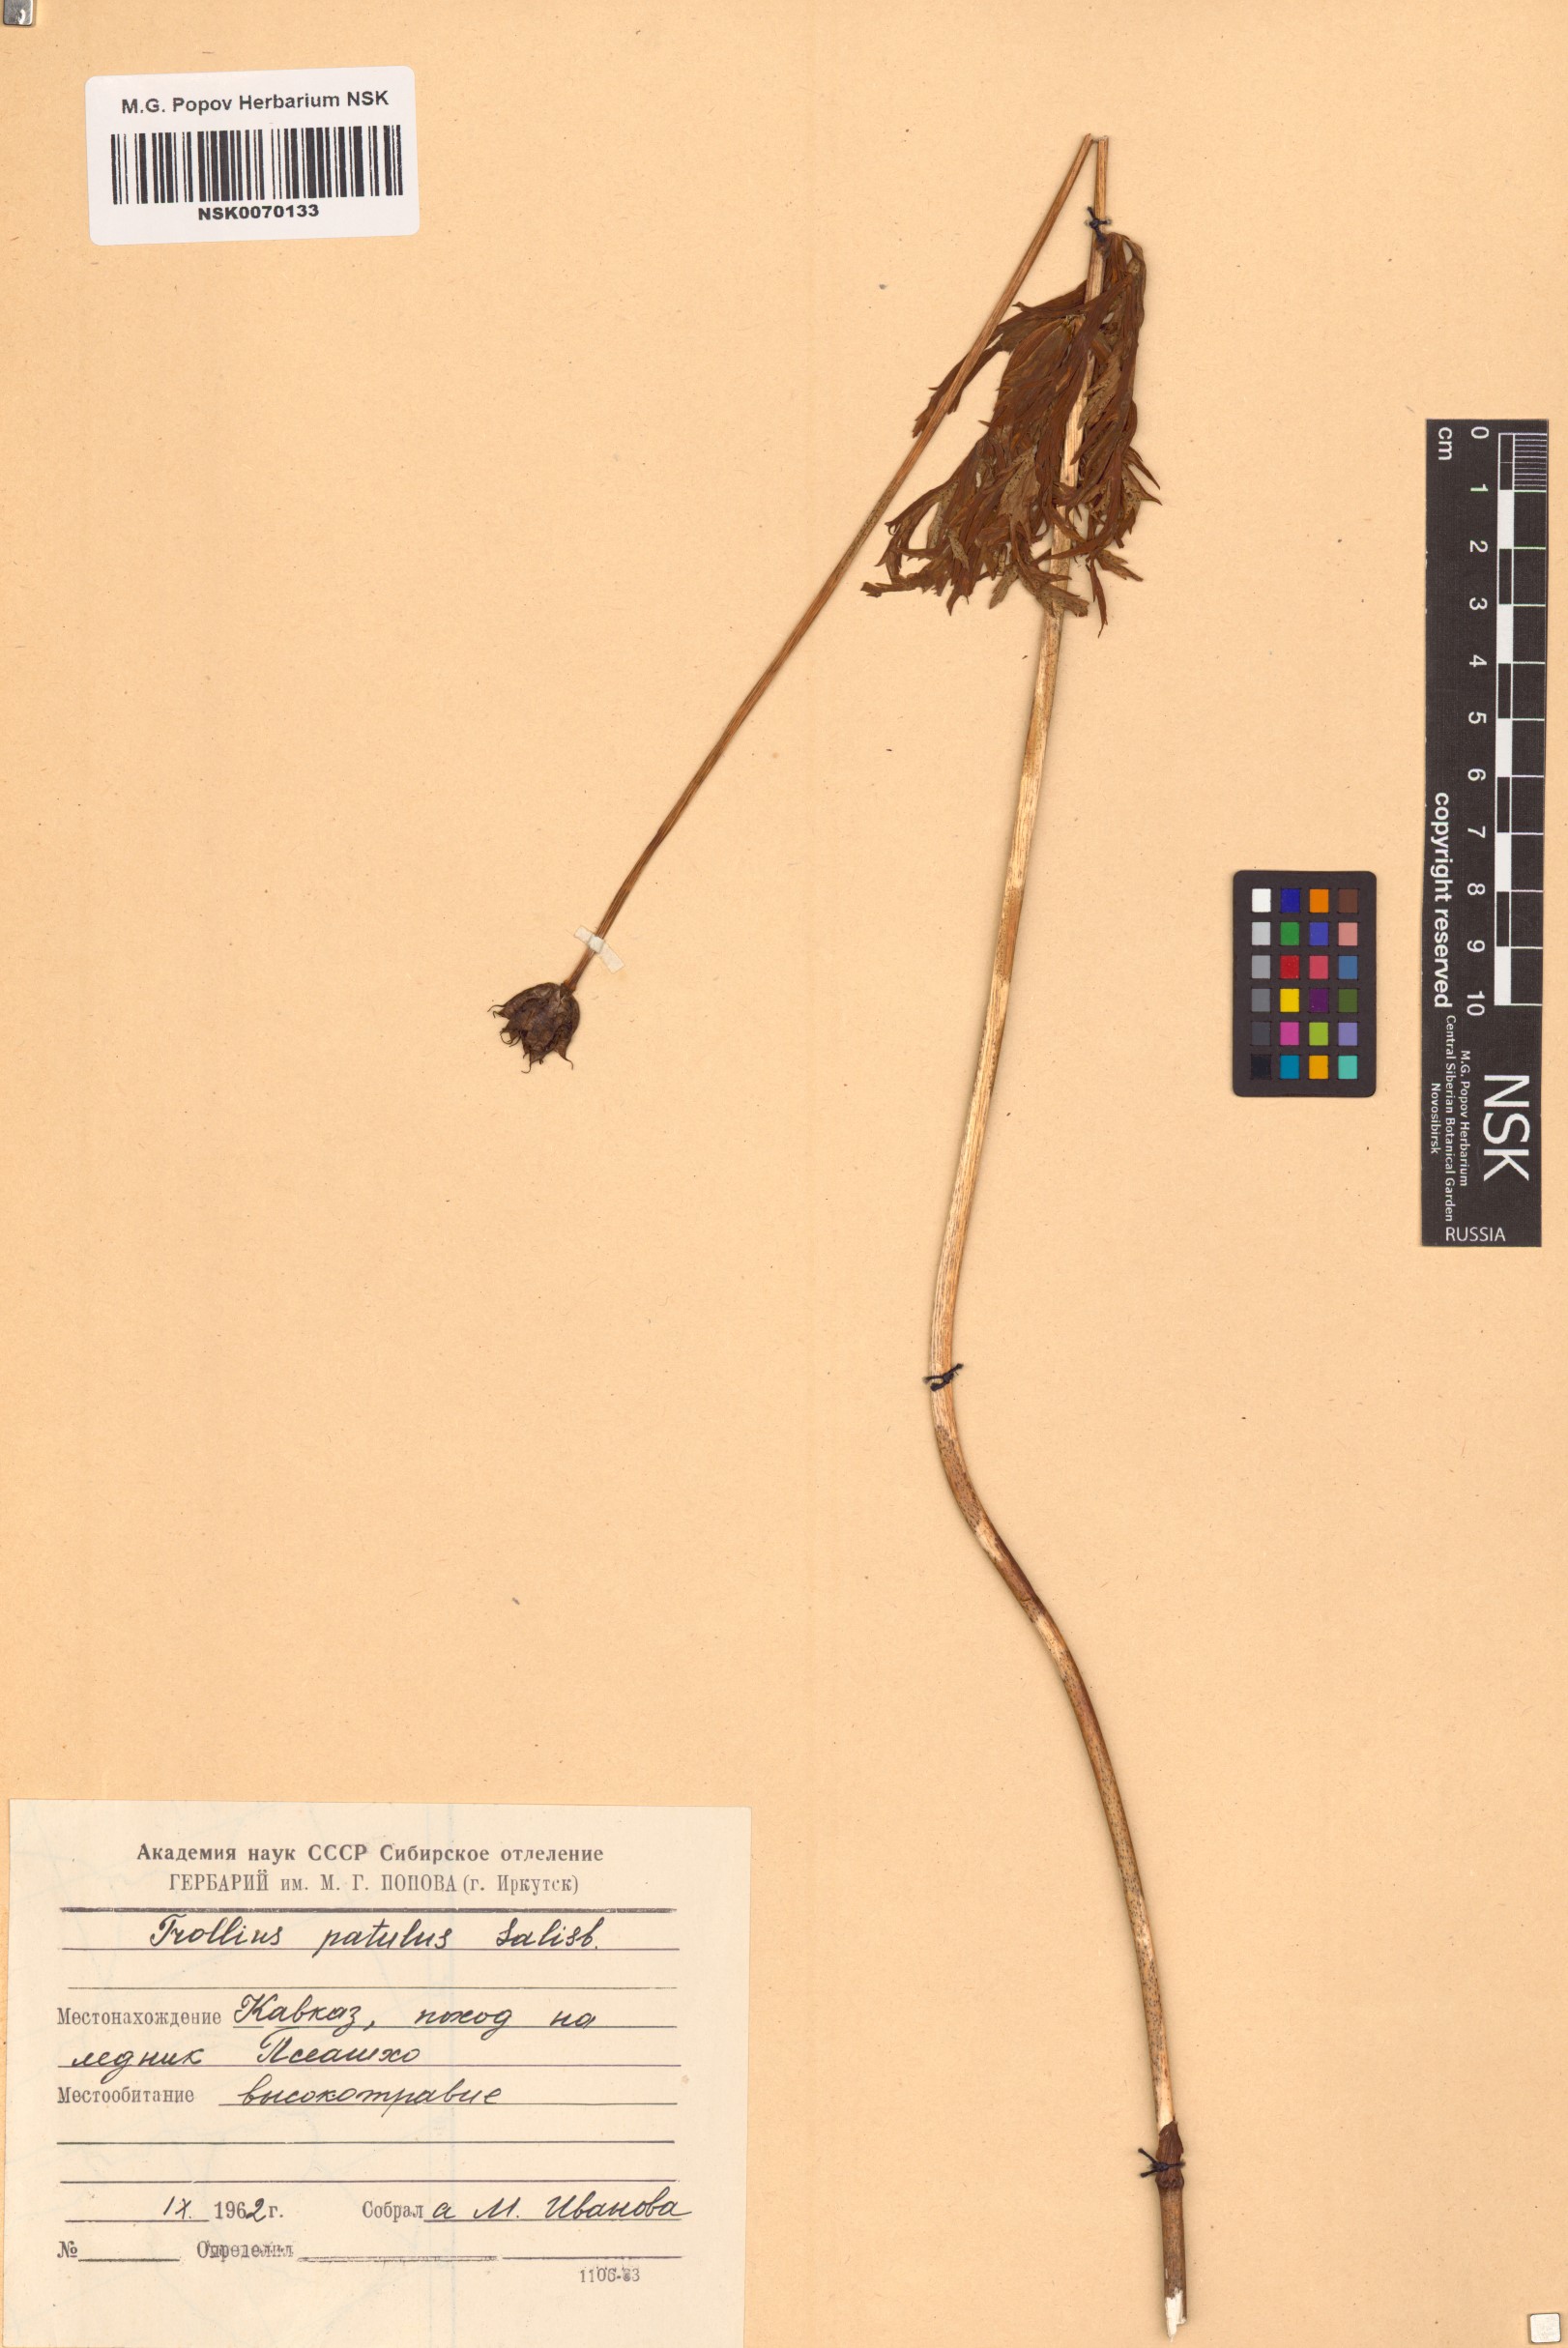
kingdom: Plantae
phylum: Tracheophyta
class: Magnoliopsida
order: Ranunculales
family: Ranunculaceae
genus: Trollius
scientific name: Trollius ranunculinus
